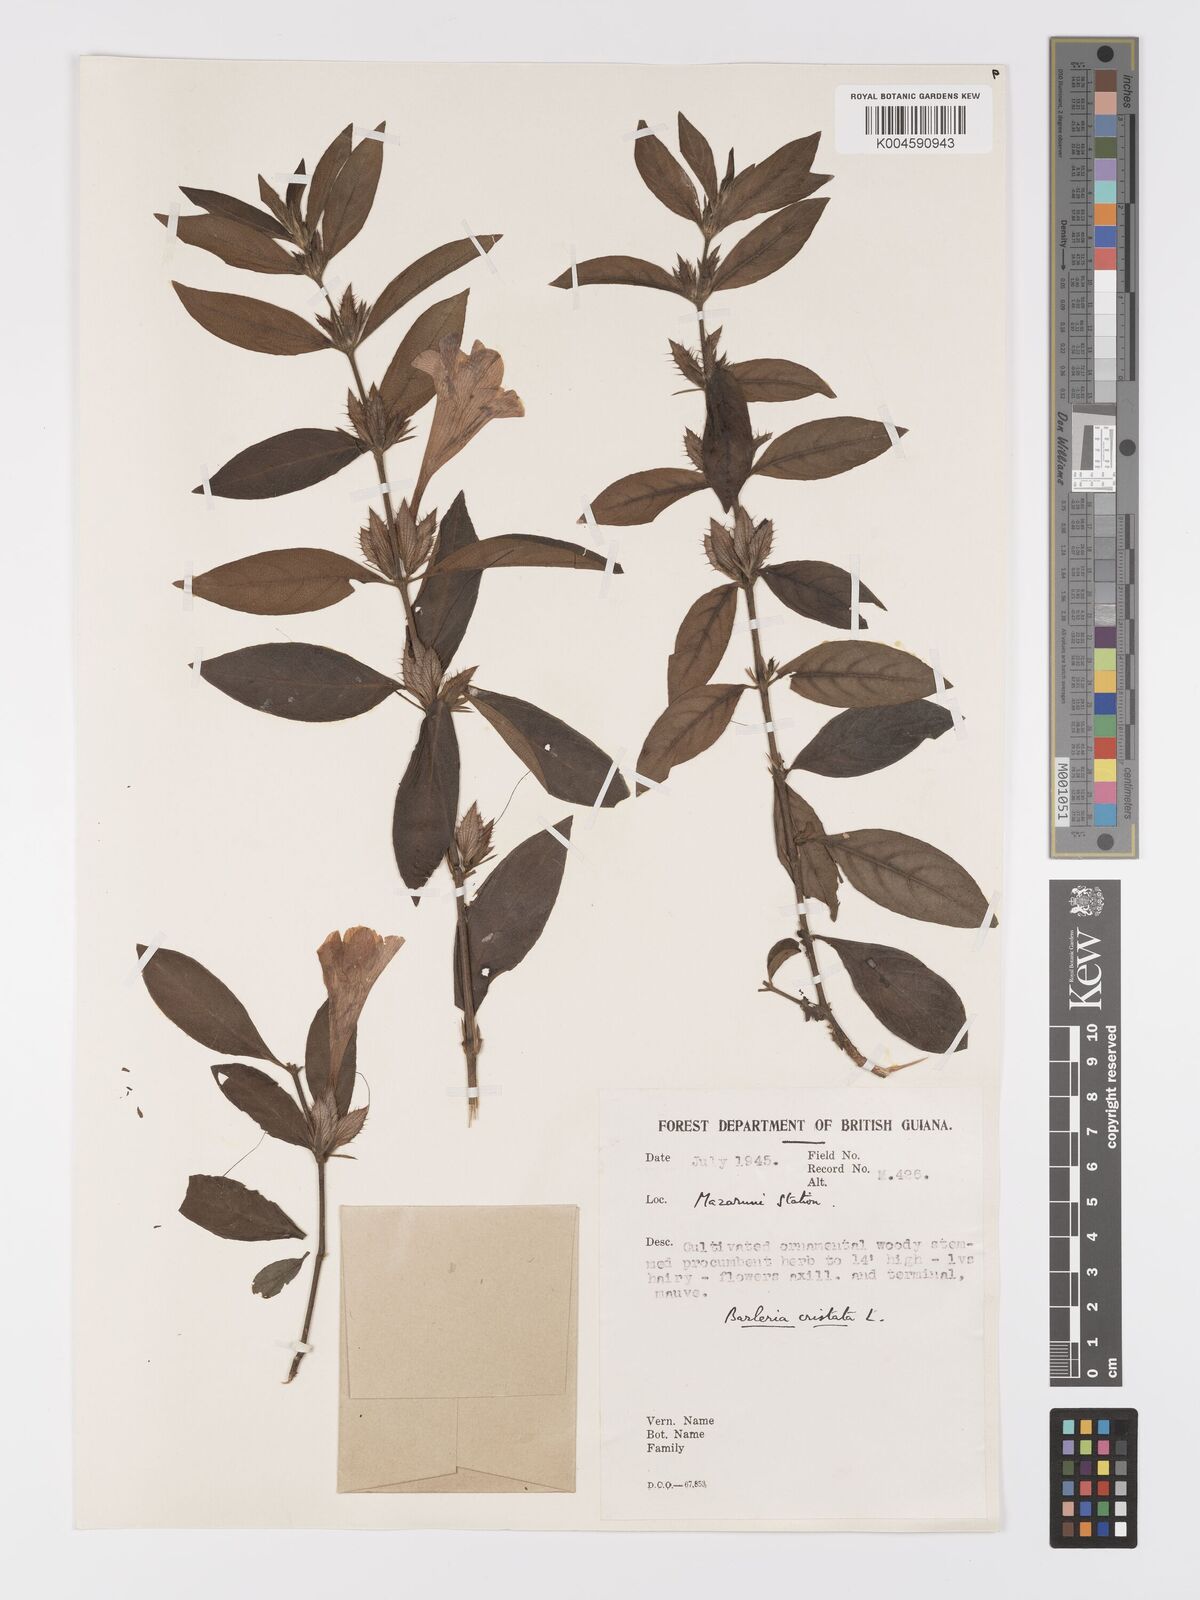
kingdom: Plantae
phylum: Tracheophyta
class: Magnoliopsida
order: Lamiales
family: Acanthaceae
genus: Barleria
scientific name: Barleria cristata
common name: Crested philippine violet
